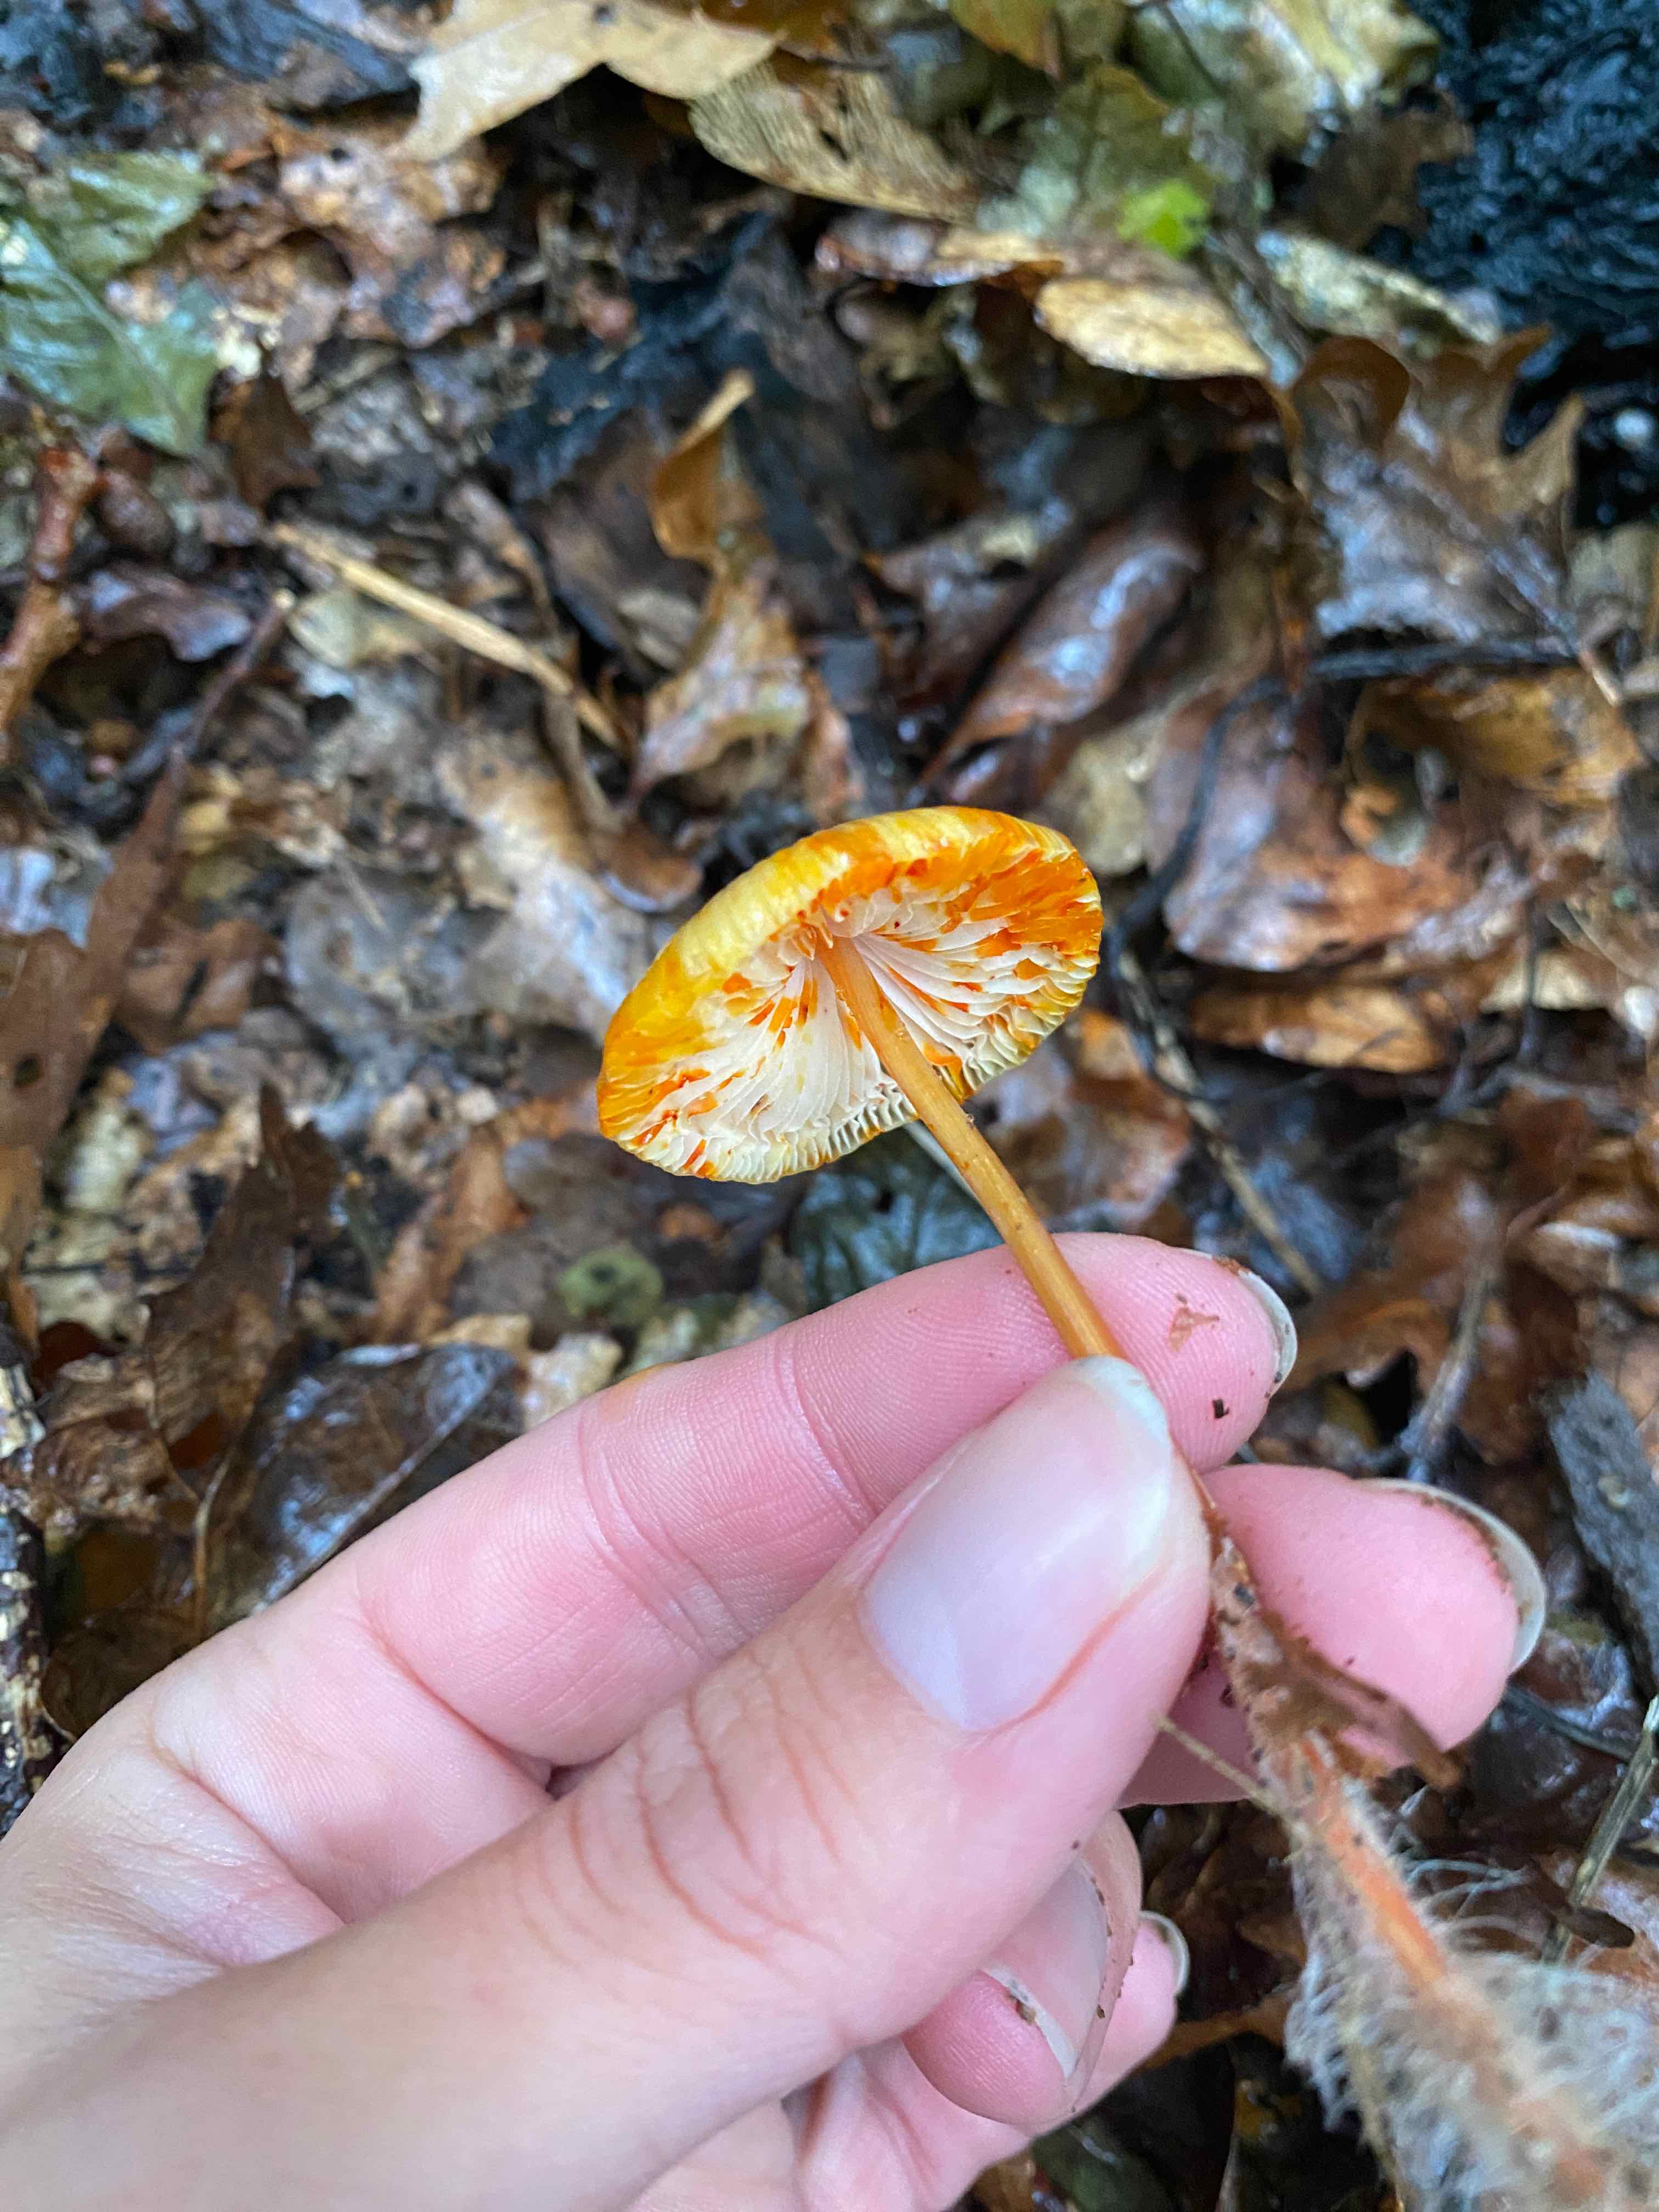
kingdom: Fungi
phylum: Basidiomycota
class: Agaricomycetes
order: Agaricales
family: Mycenaceae
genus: Mycena
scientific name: Mycena crocata
